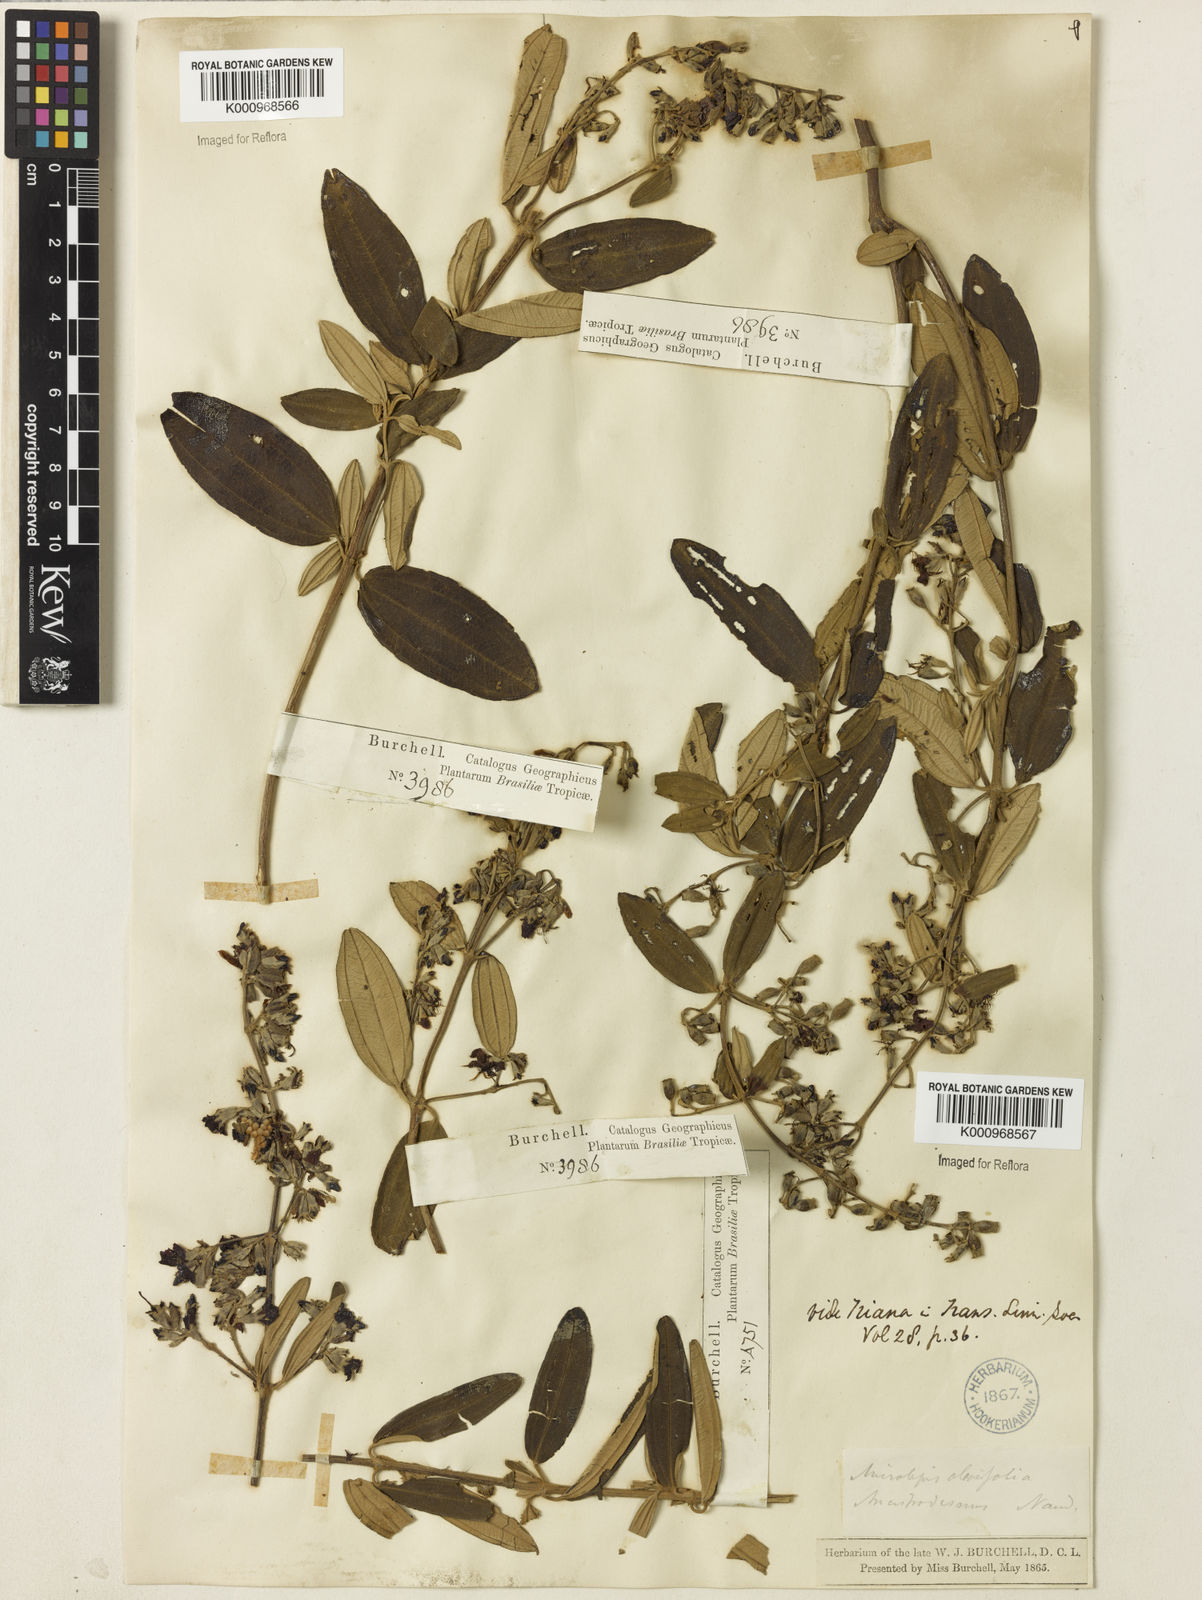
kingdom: Plantae
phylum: Tracheophyta
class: Magnoliopsida
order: Myrtales
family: Melastomataceae
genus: Pleroma
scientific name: Pleroma oleifolia
